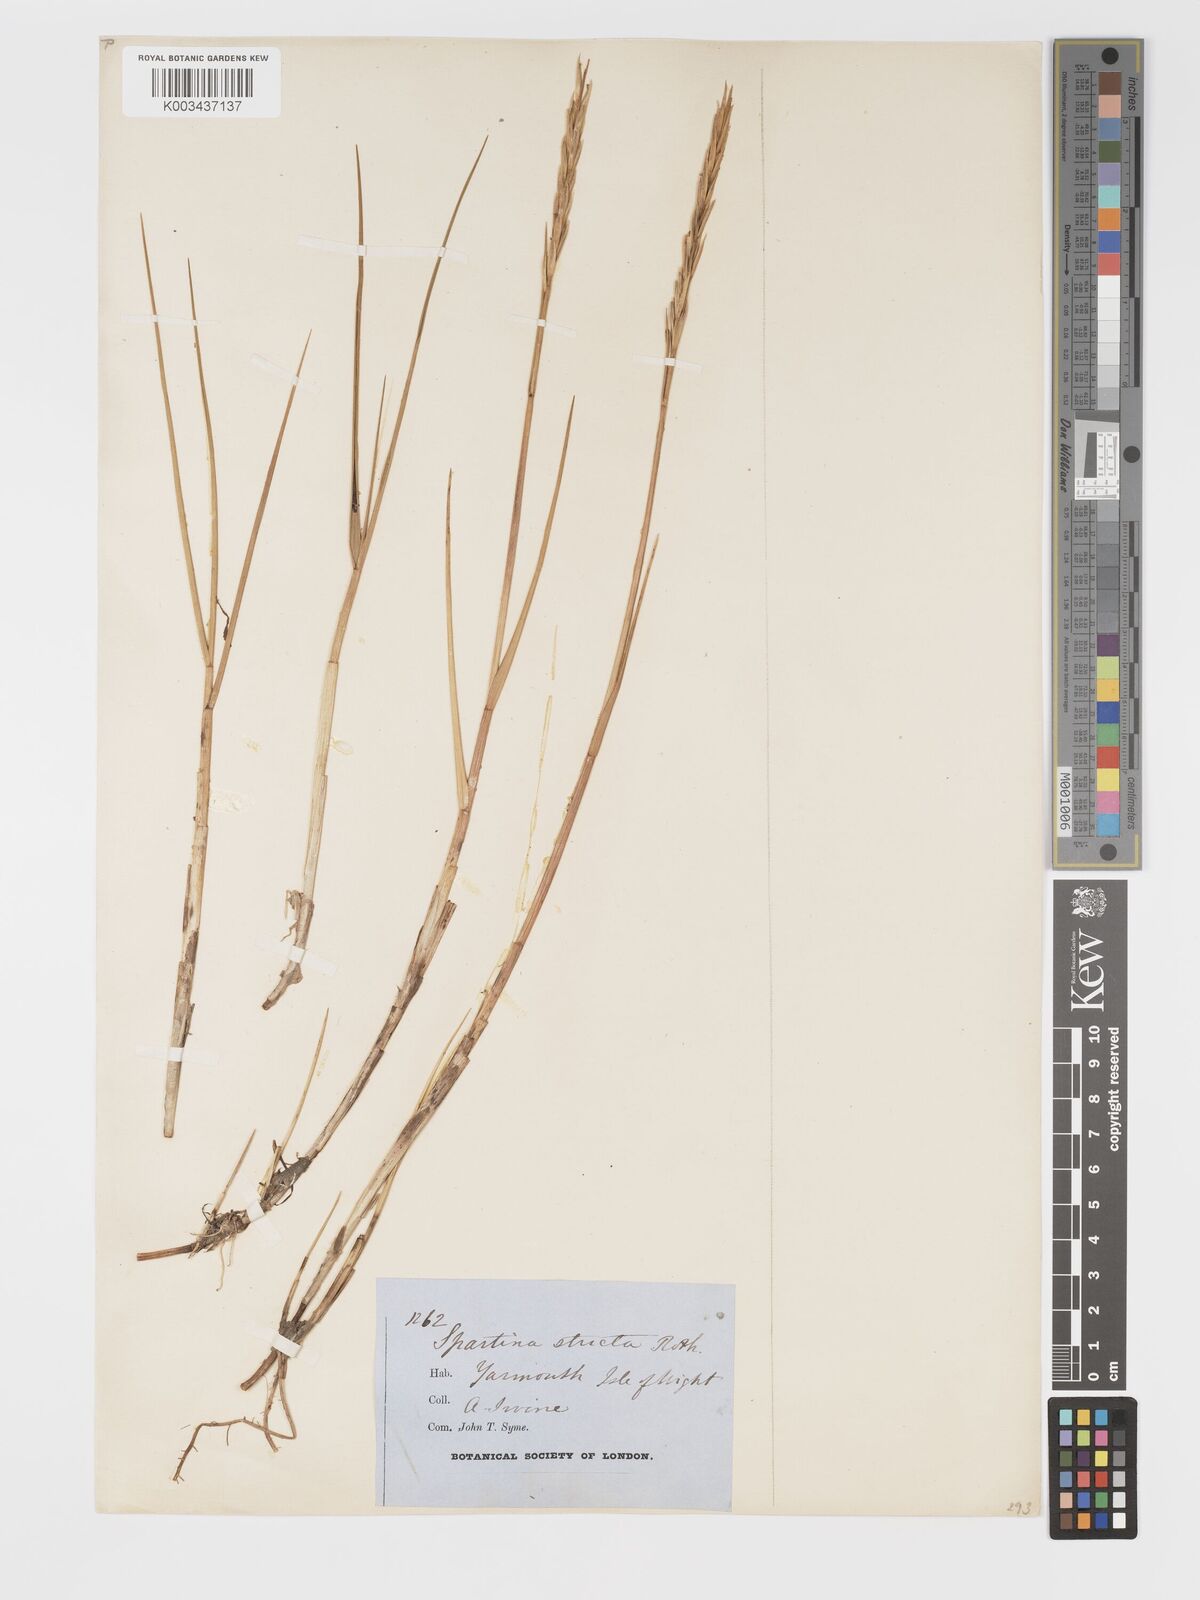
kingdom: Plantae
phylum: Tracheophyta
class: Liliopsida
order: Poales
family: Poaceae
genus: Sporobolus
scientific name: Sporobolus maritimus
